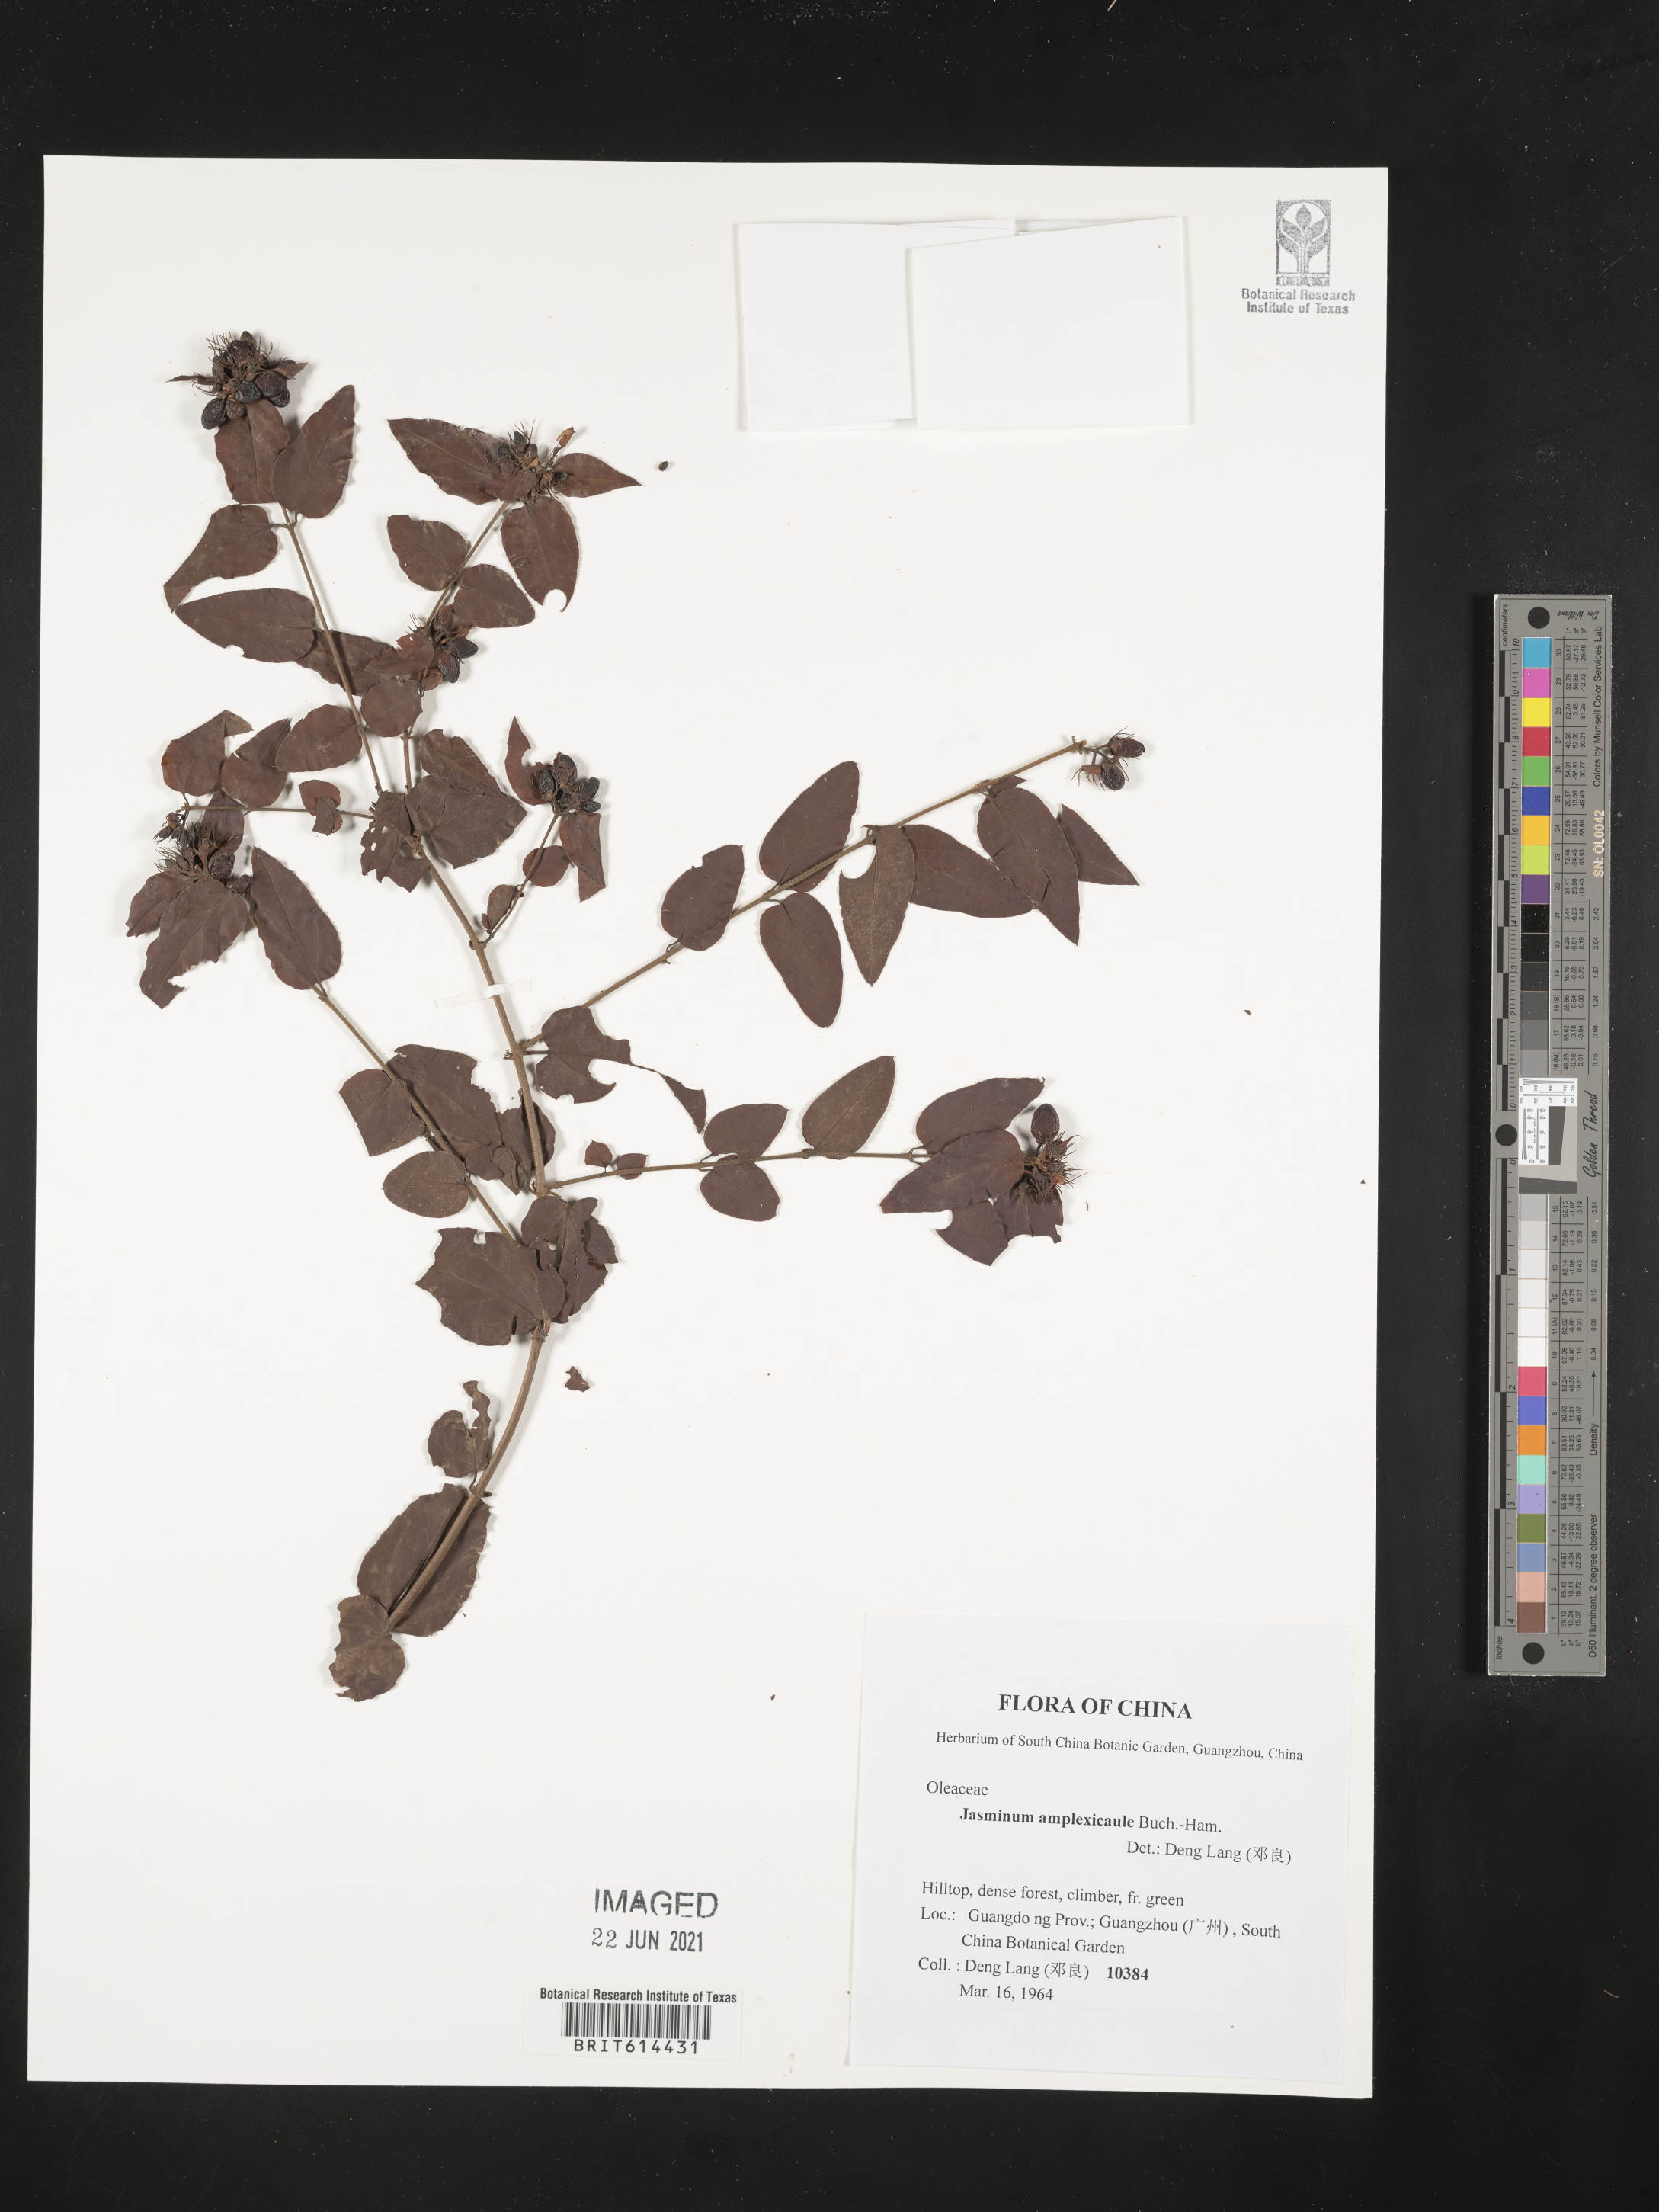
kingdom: Plantae
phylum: Tracheophyta
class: Magnoliopsida
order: Lamiales
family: Oleaceae
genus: Jasminum
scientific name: Jasminum elongatum
